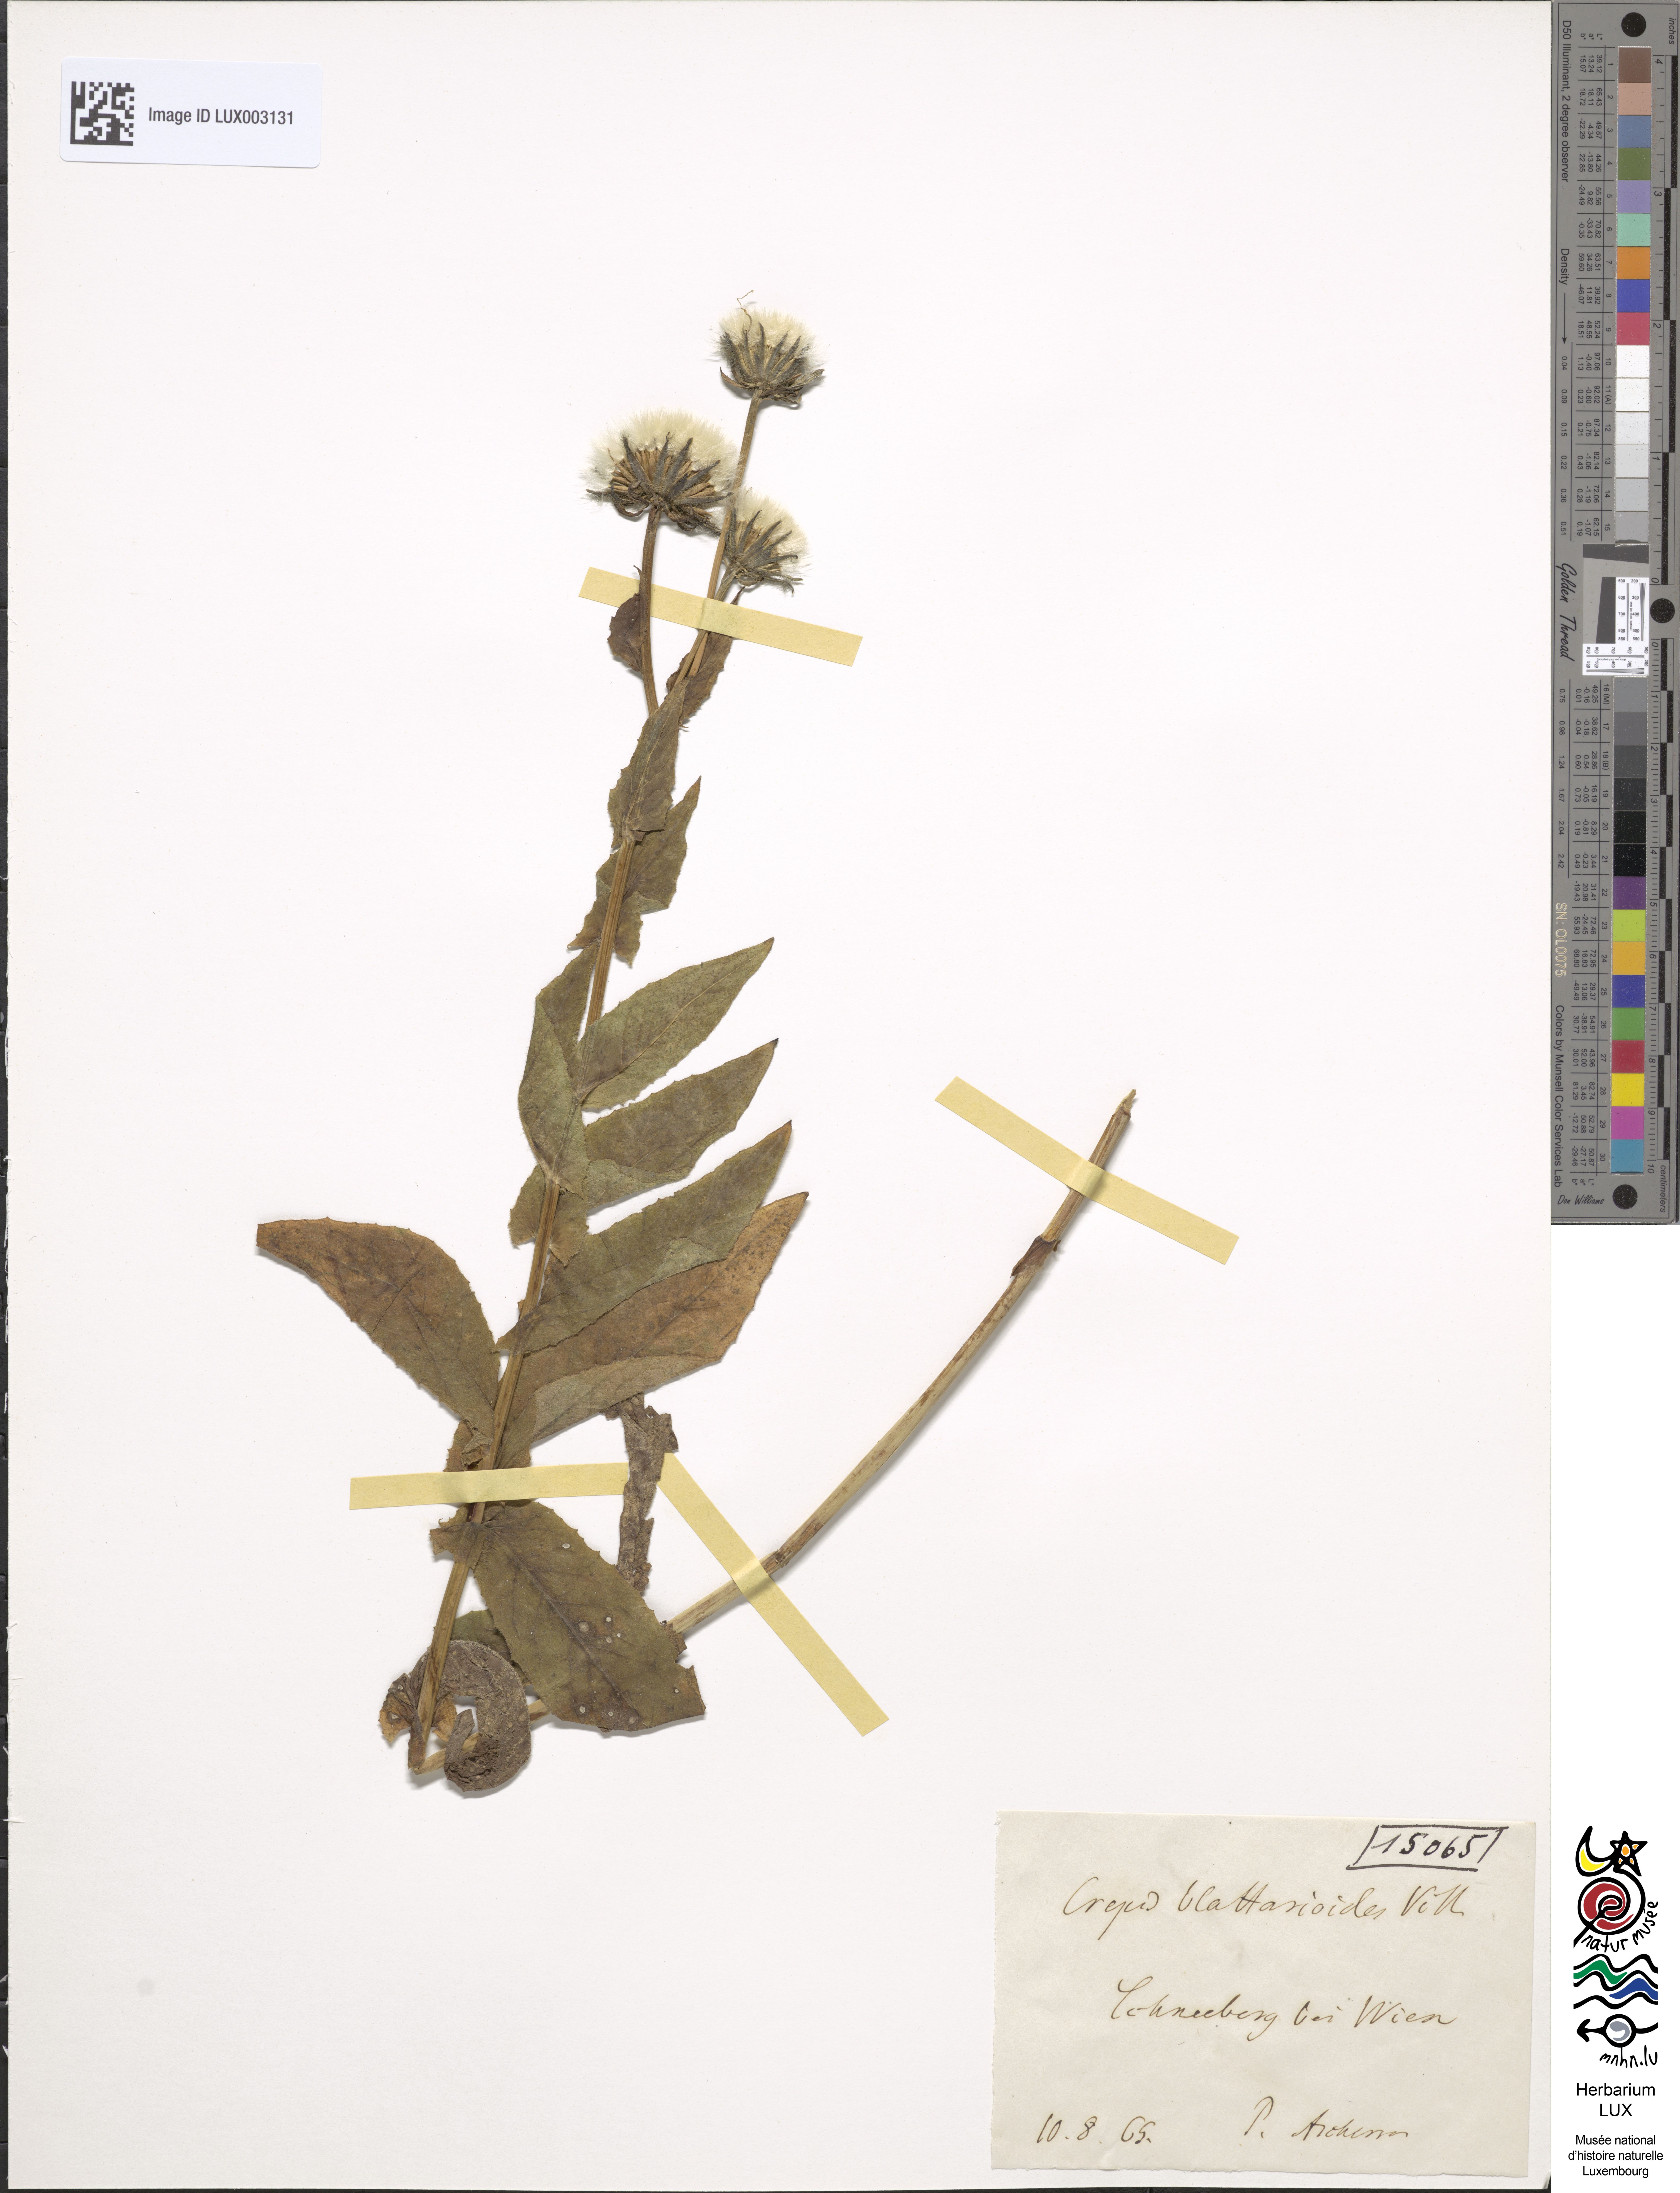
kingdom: Plantae
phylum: Tracheophyta
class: Magnoliopsida
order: Asterales
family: Asteraceae
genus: Crepis
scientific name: Crepis blattarioides
